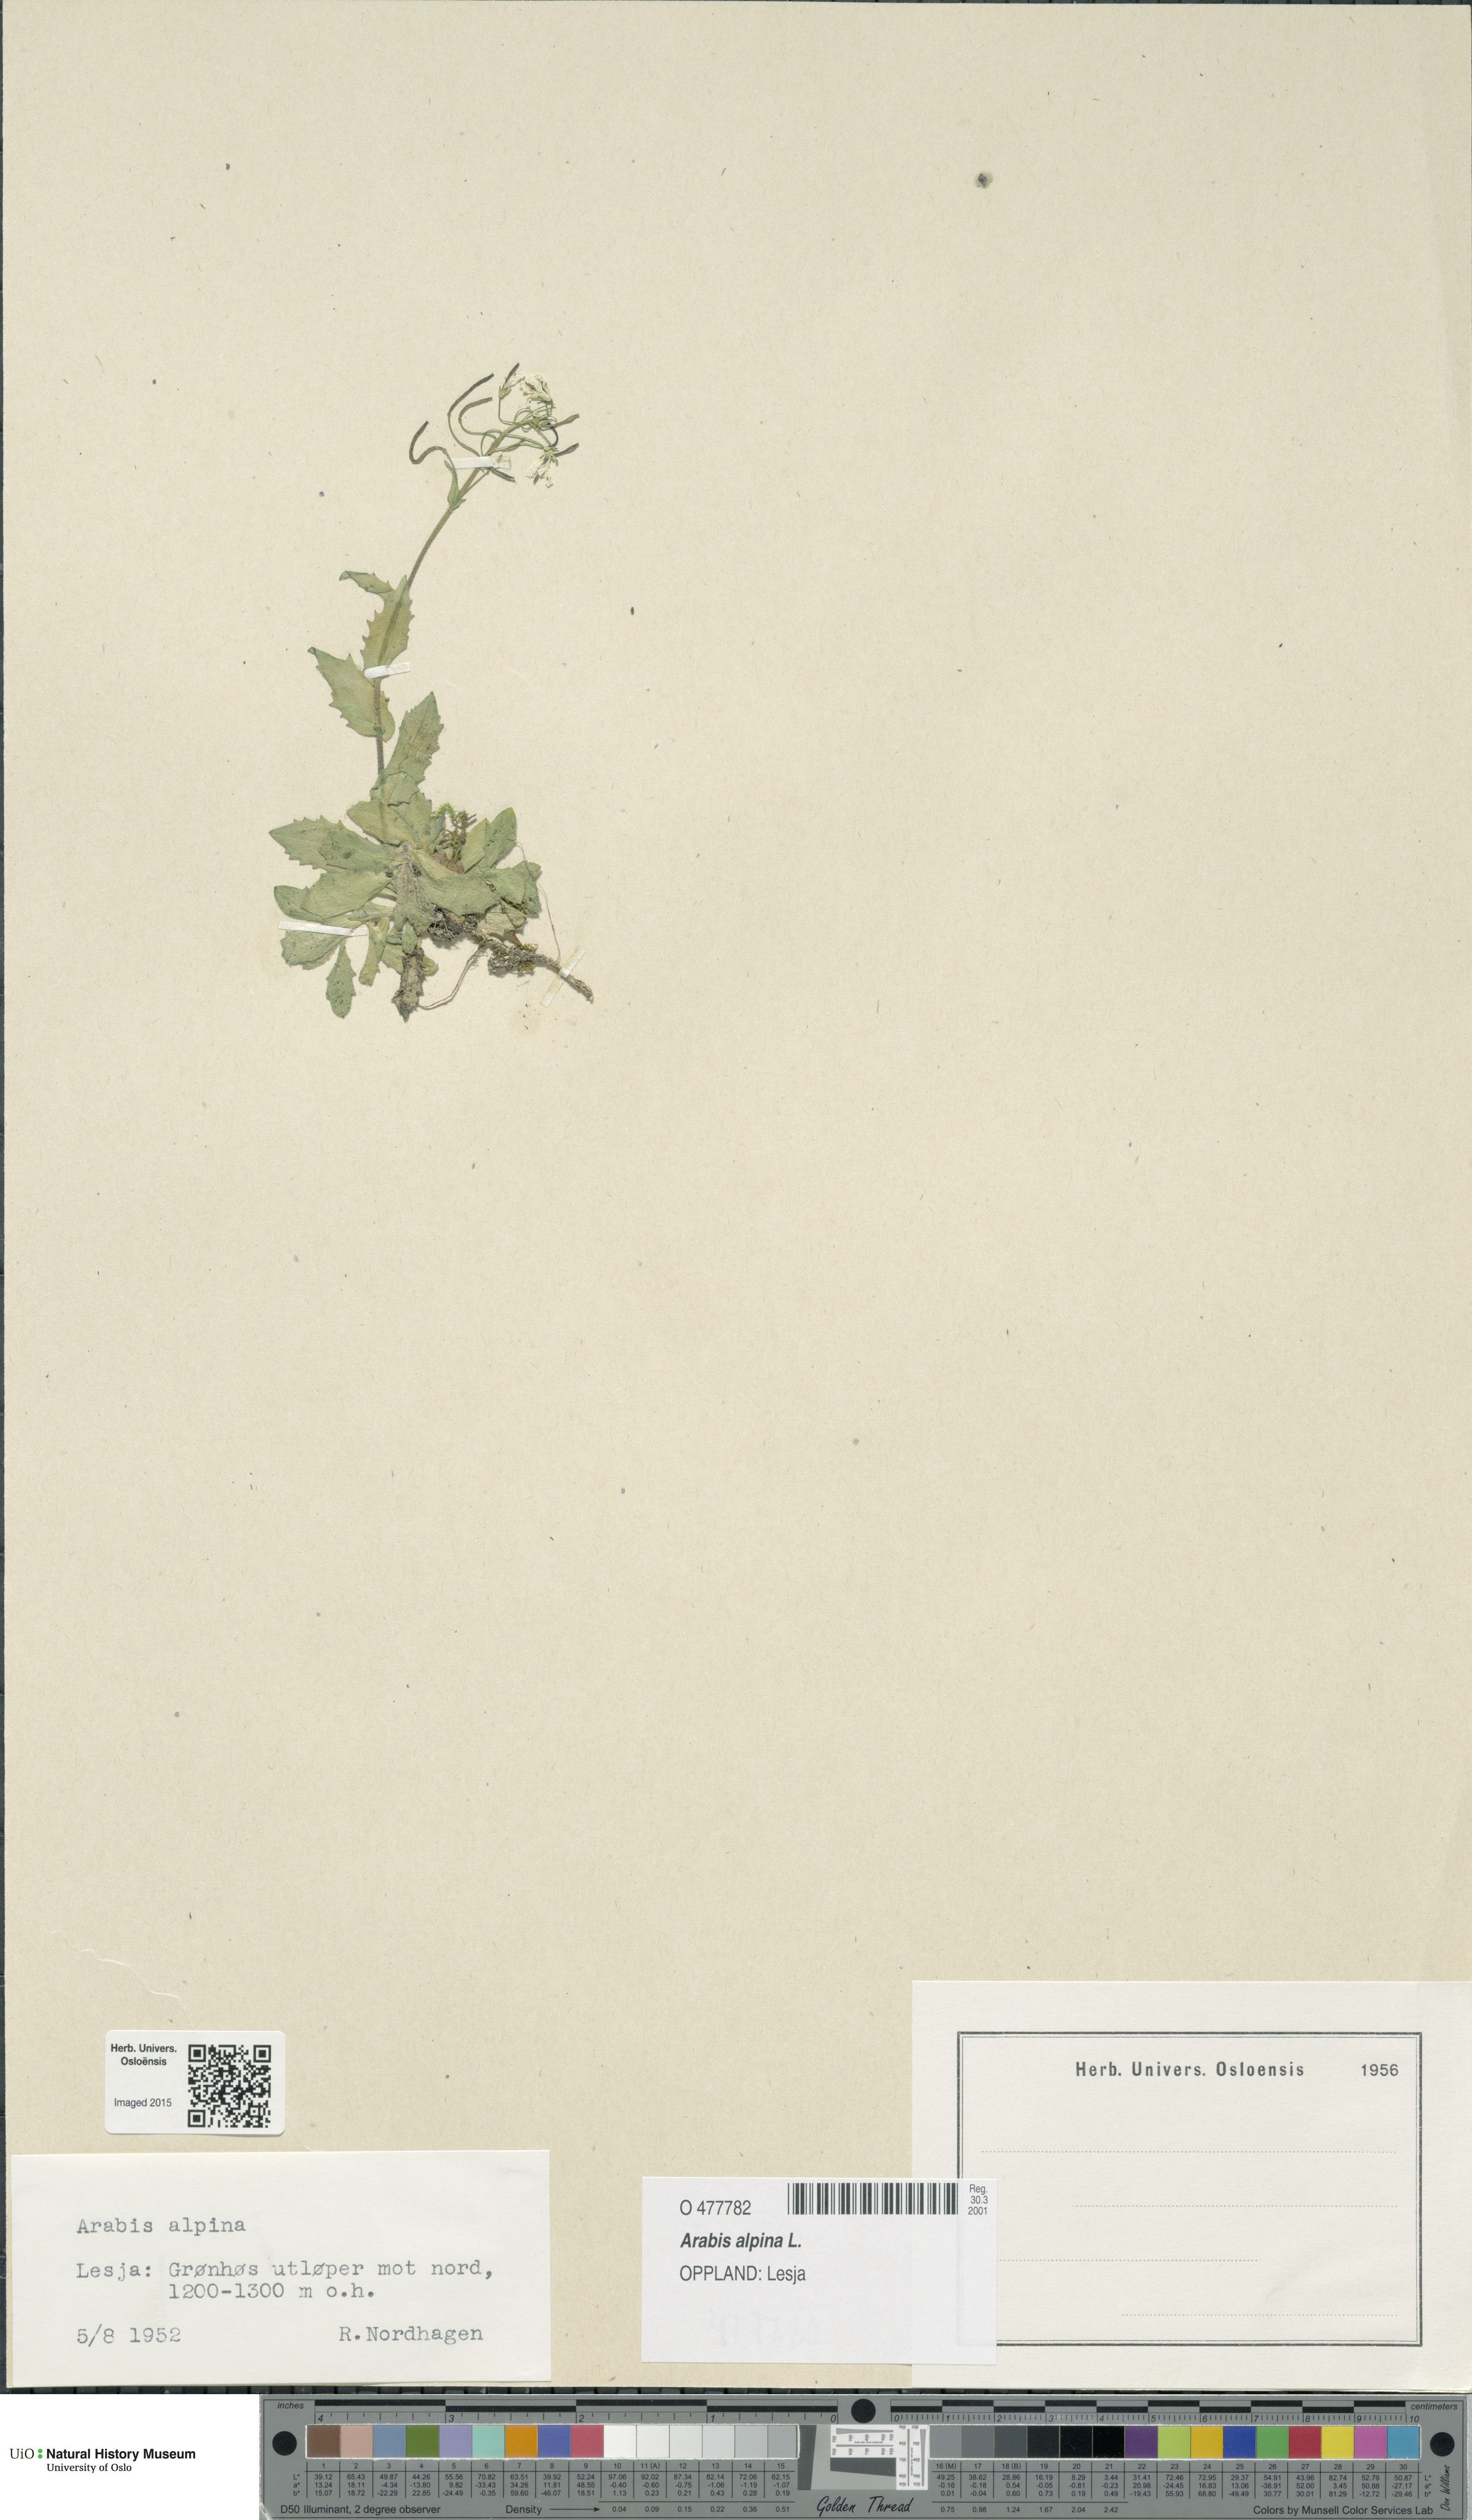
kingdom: Plantae
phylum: Tracheophyta
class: Magnoliopsida
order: Brassicales
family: Brassicaceae
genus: Arabis
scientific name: Arabis alpina
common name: Alpine rock-cress
